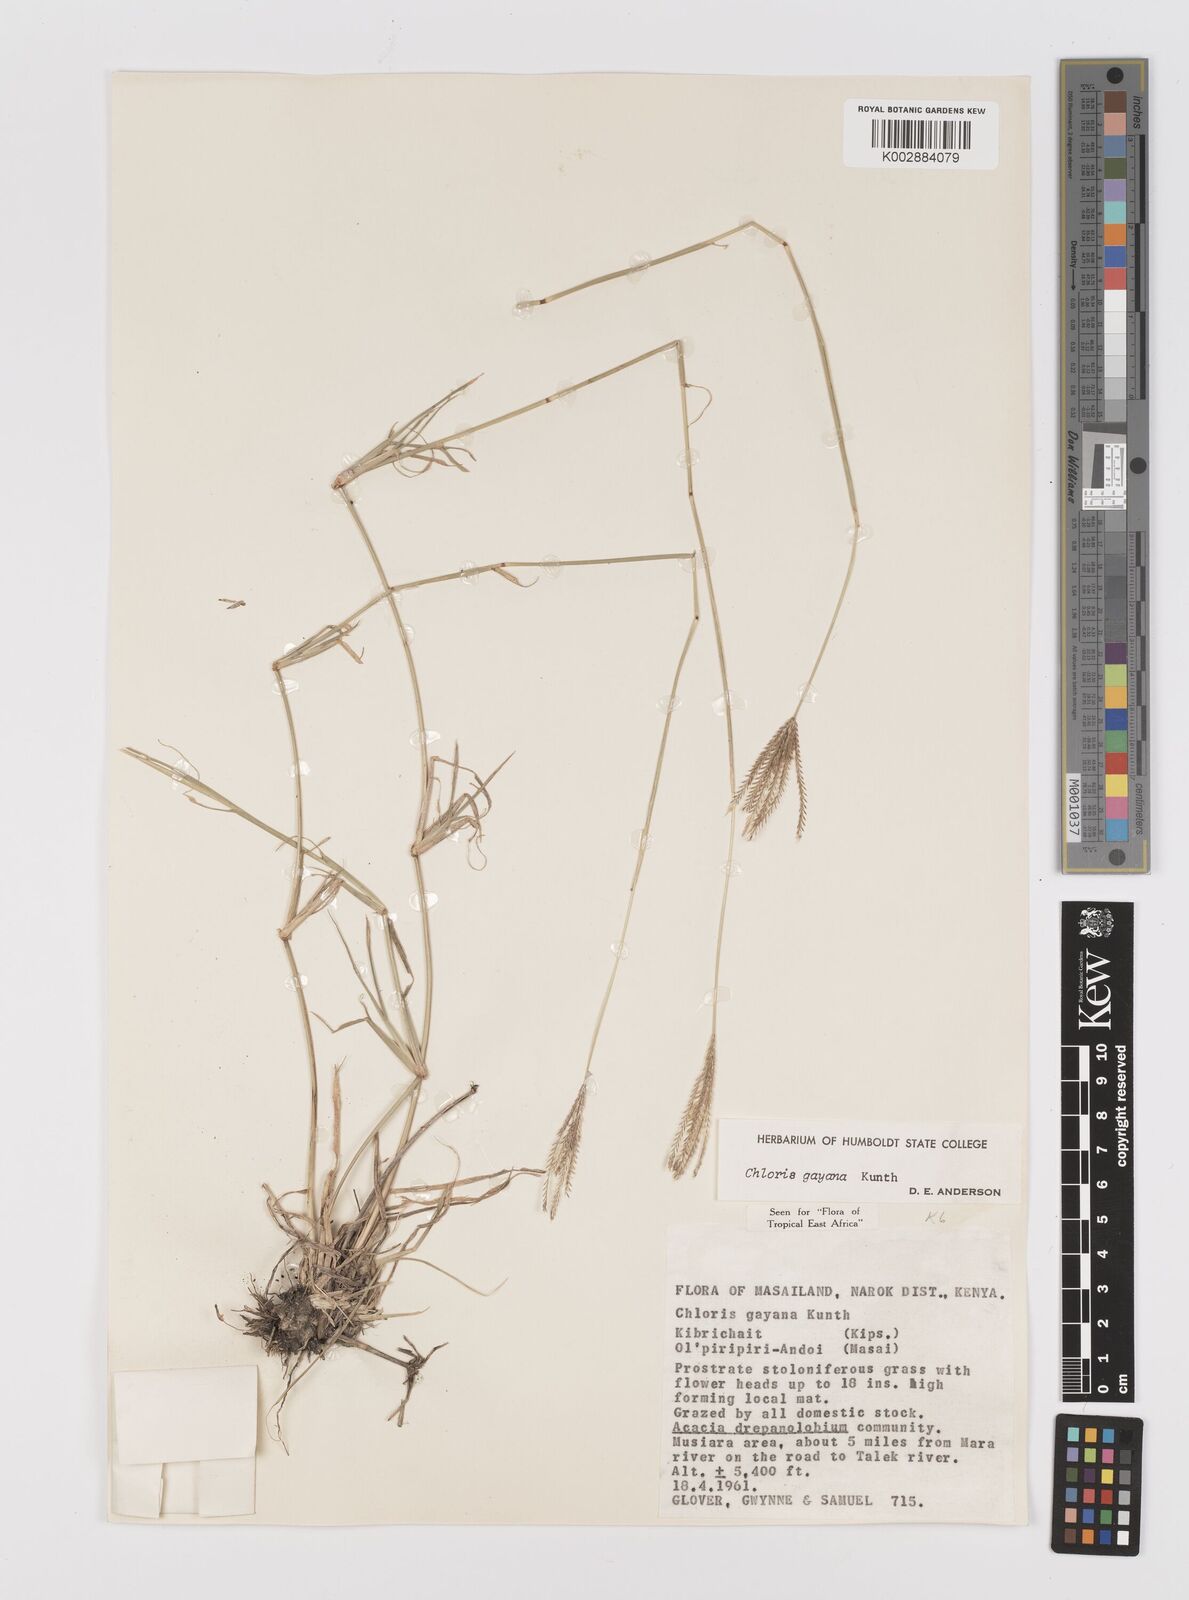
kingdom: Plantae
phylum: Tracheophyta
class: Liliopsida
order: Poales
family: Poaceae
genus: Chloris
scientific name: Chloris gayana
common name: Rhodes grass
